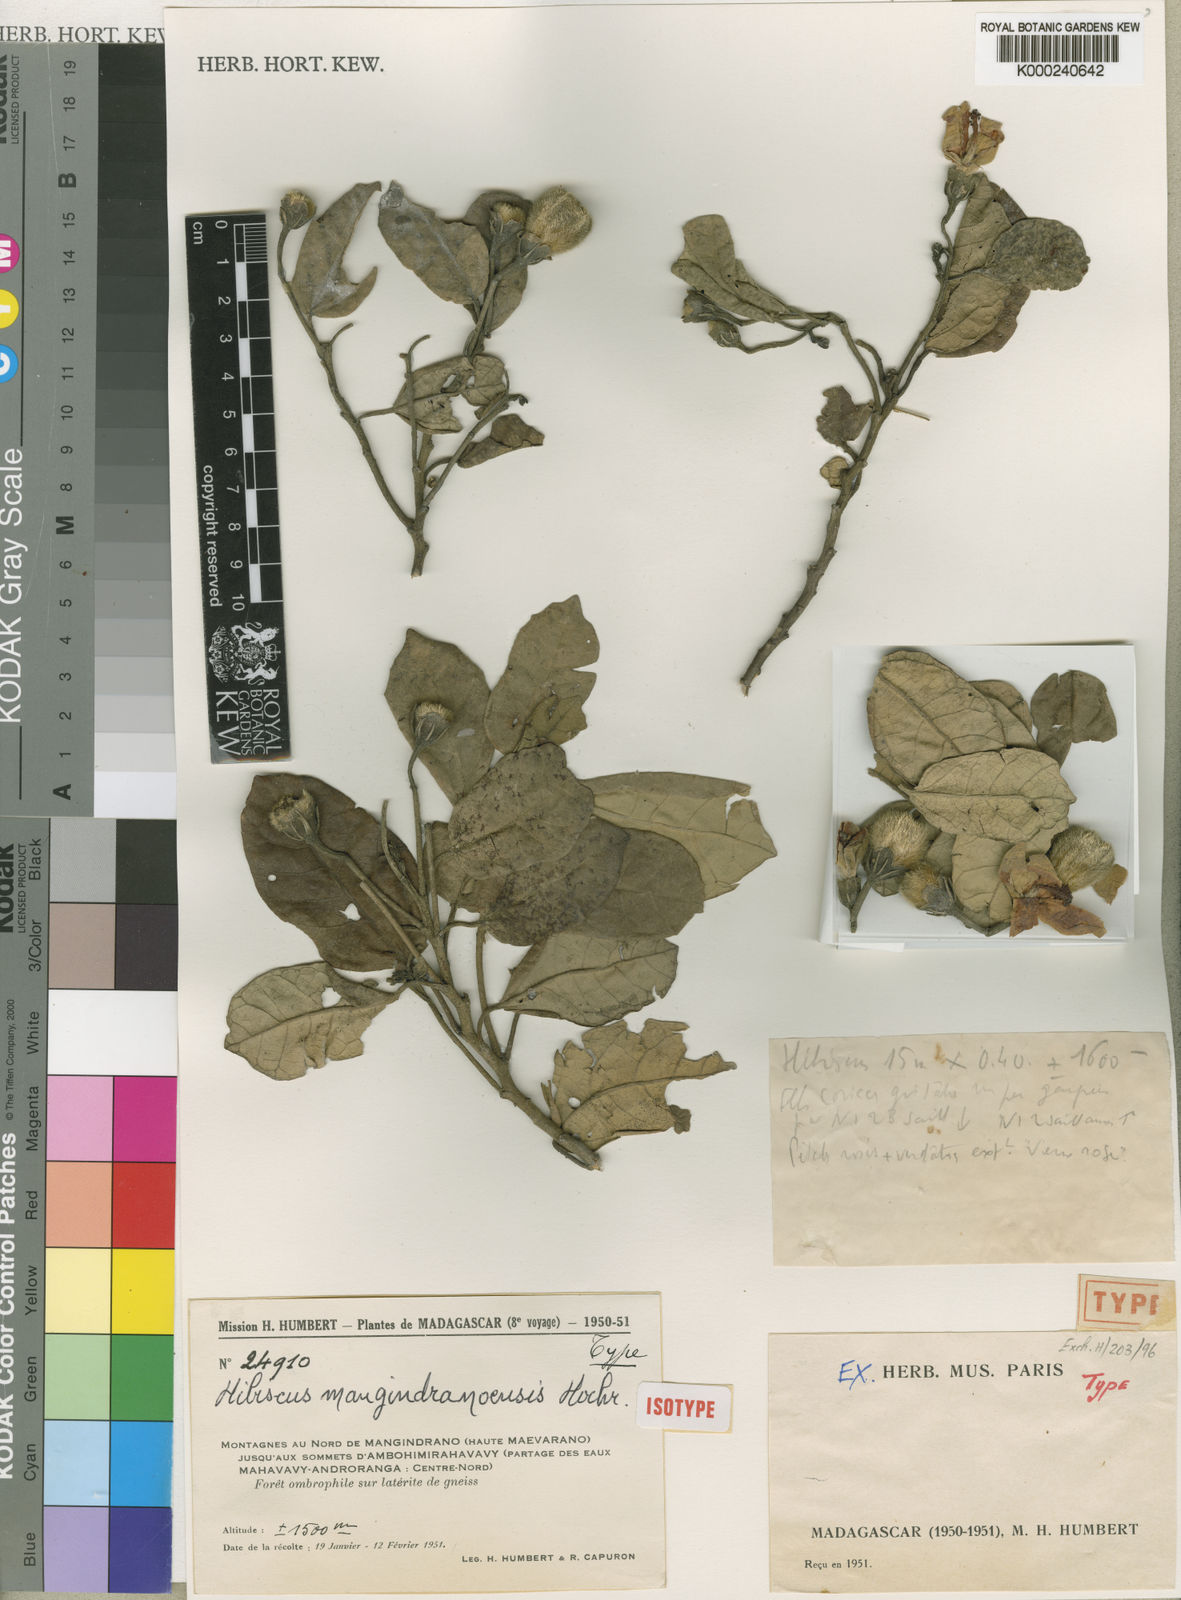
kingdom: Plantae
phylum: Tracheophyta
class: Magnoliopsida
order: Malvales
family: Malvaceae
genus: Hibiscus
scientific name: Hibiscus mangindranensis
